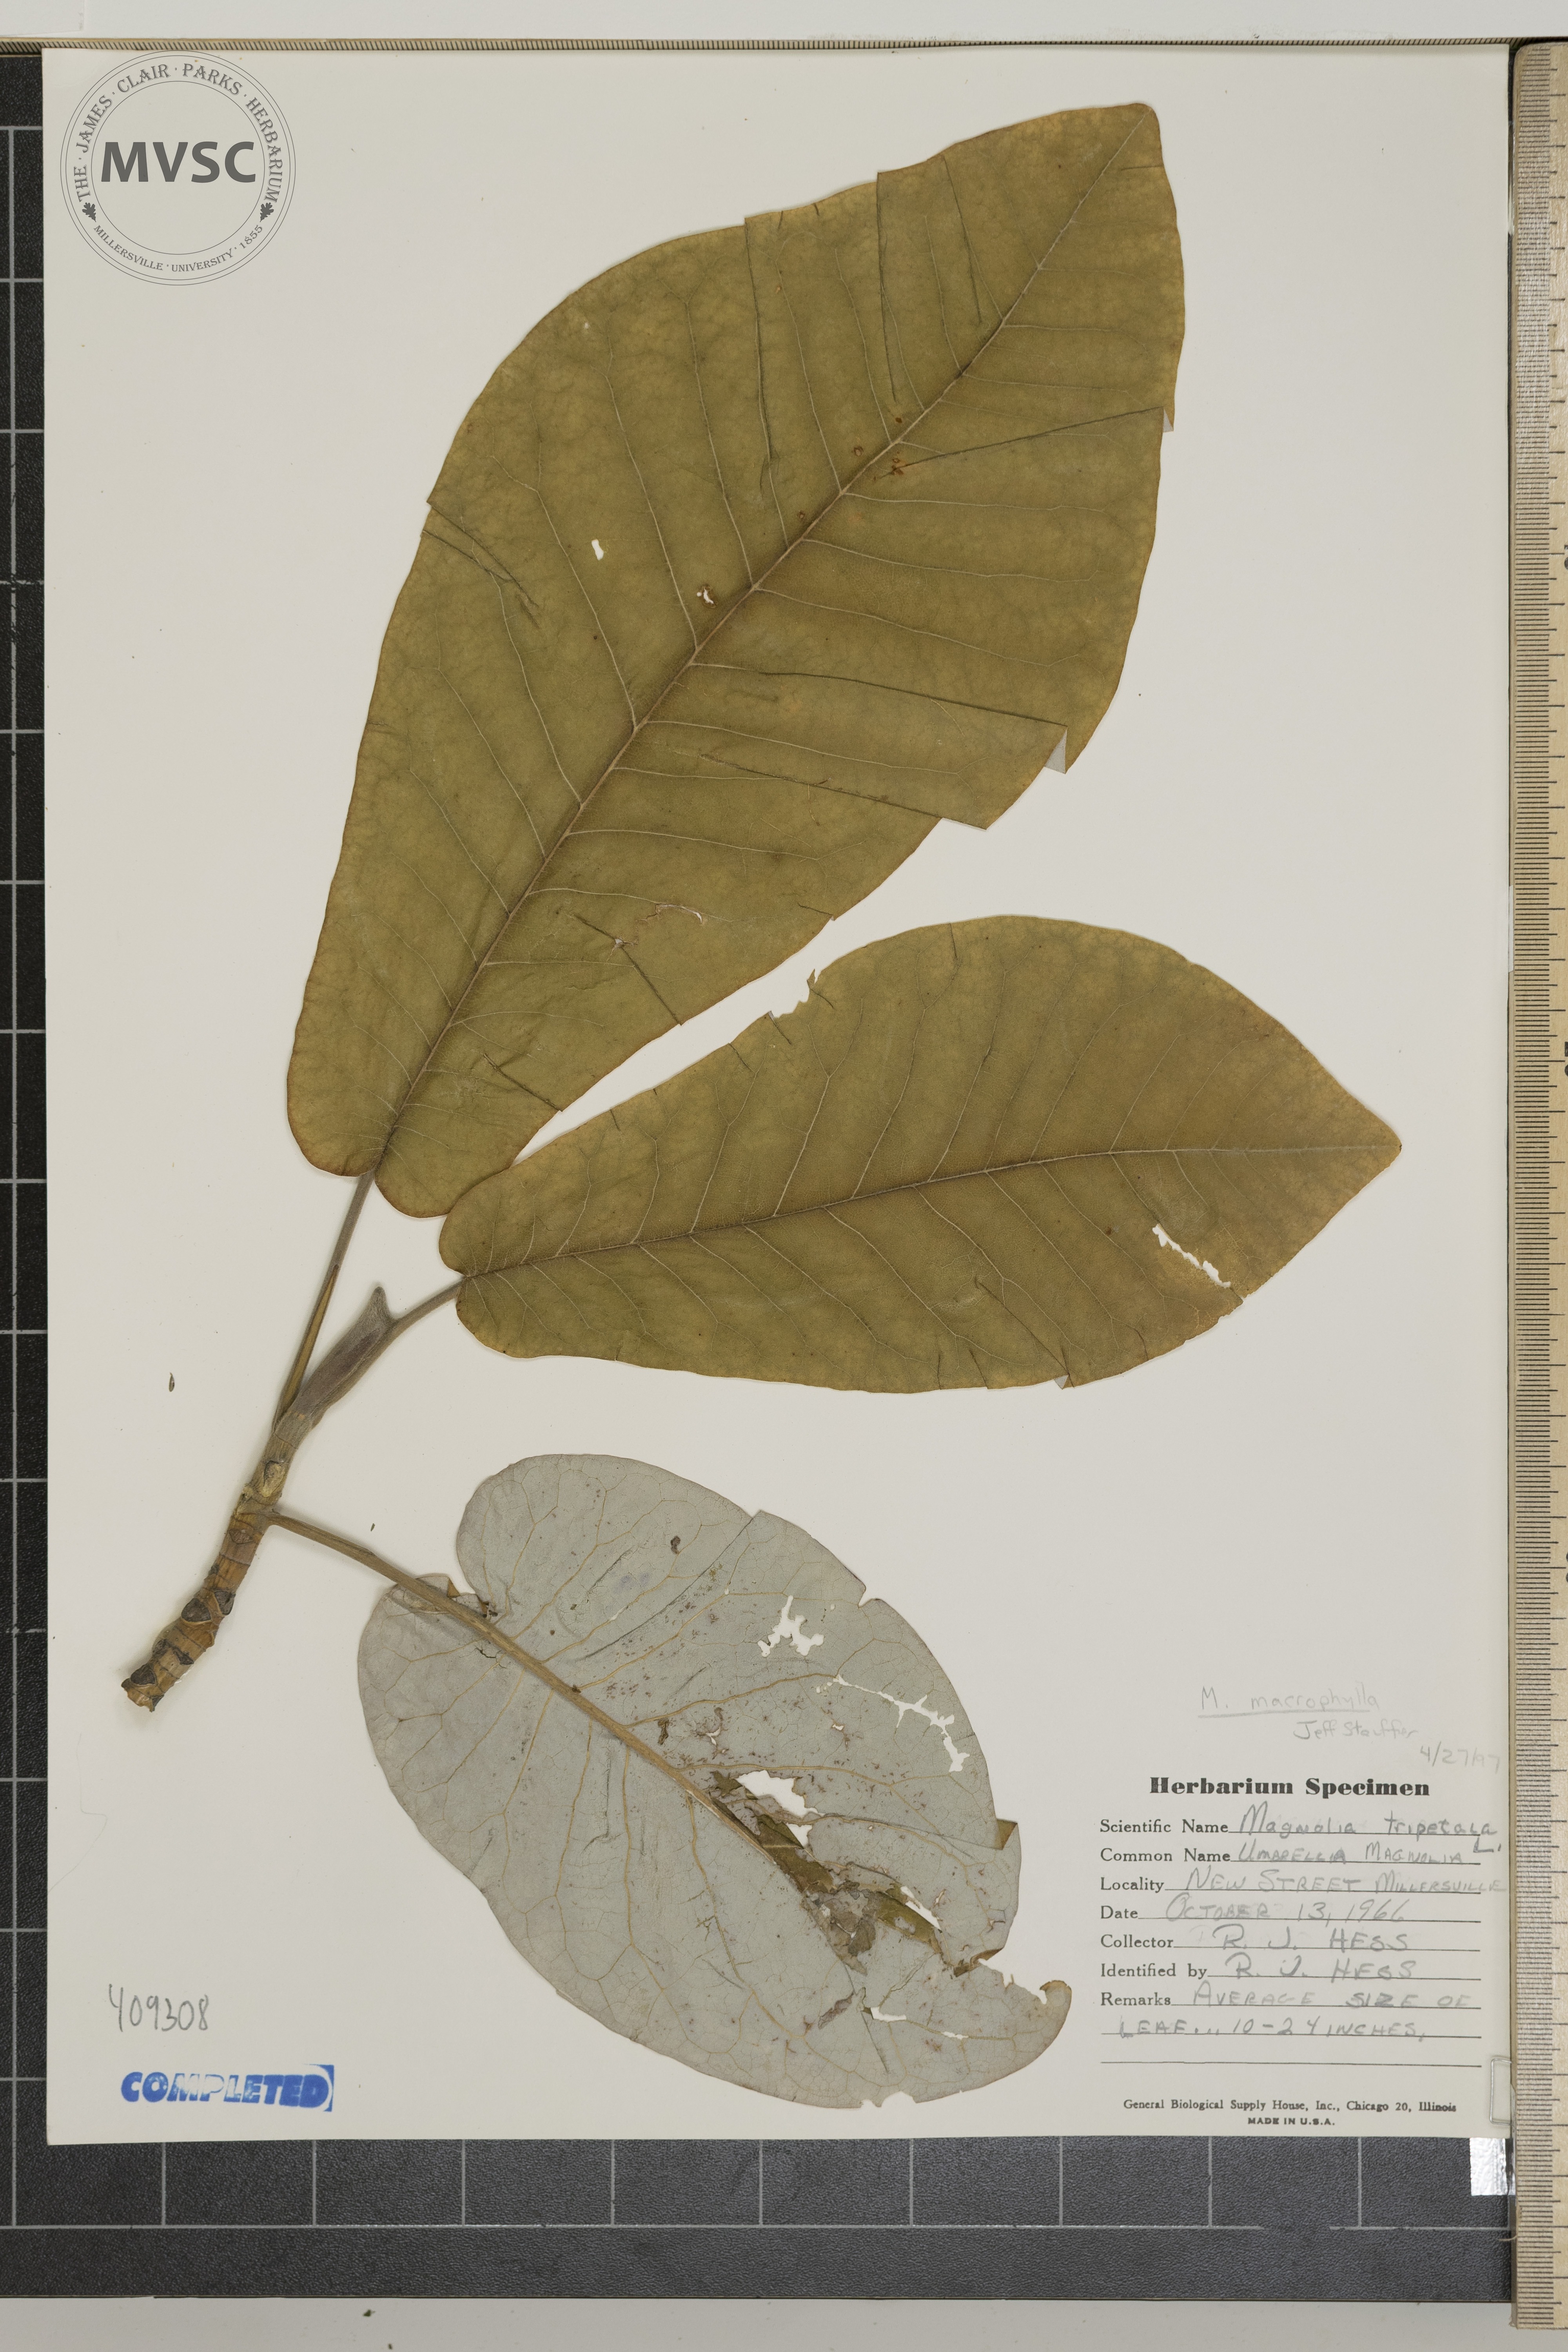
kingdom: Plantae
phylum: Tracheophyta
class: Magnoliopsida
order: Magnoliales
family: Magnoliaceae
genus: Magnolia
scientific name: Magnolia macrophylla
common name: Big-leaf magnolia
